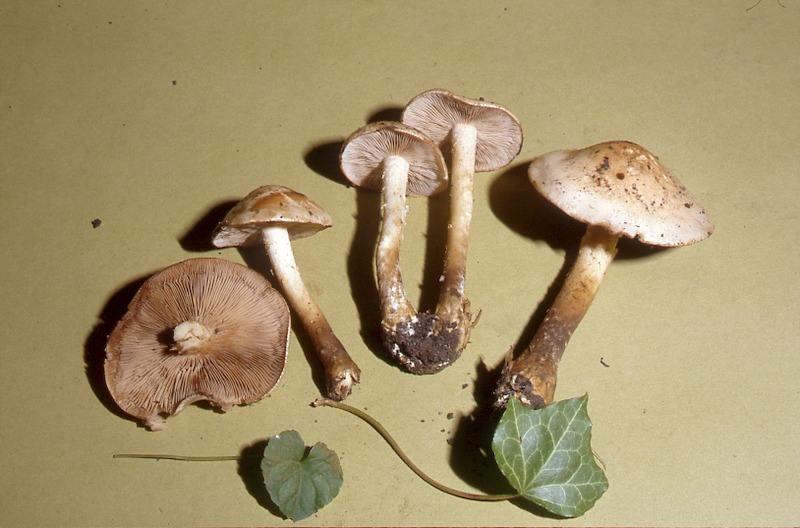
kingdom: Fungi
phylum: Basidiomycota
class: Agaricomycetes
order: Agaricales
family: Hymenogastraceae
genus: Hebeloma
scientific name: Hebeloma
